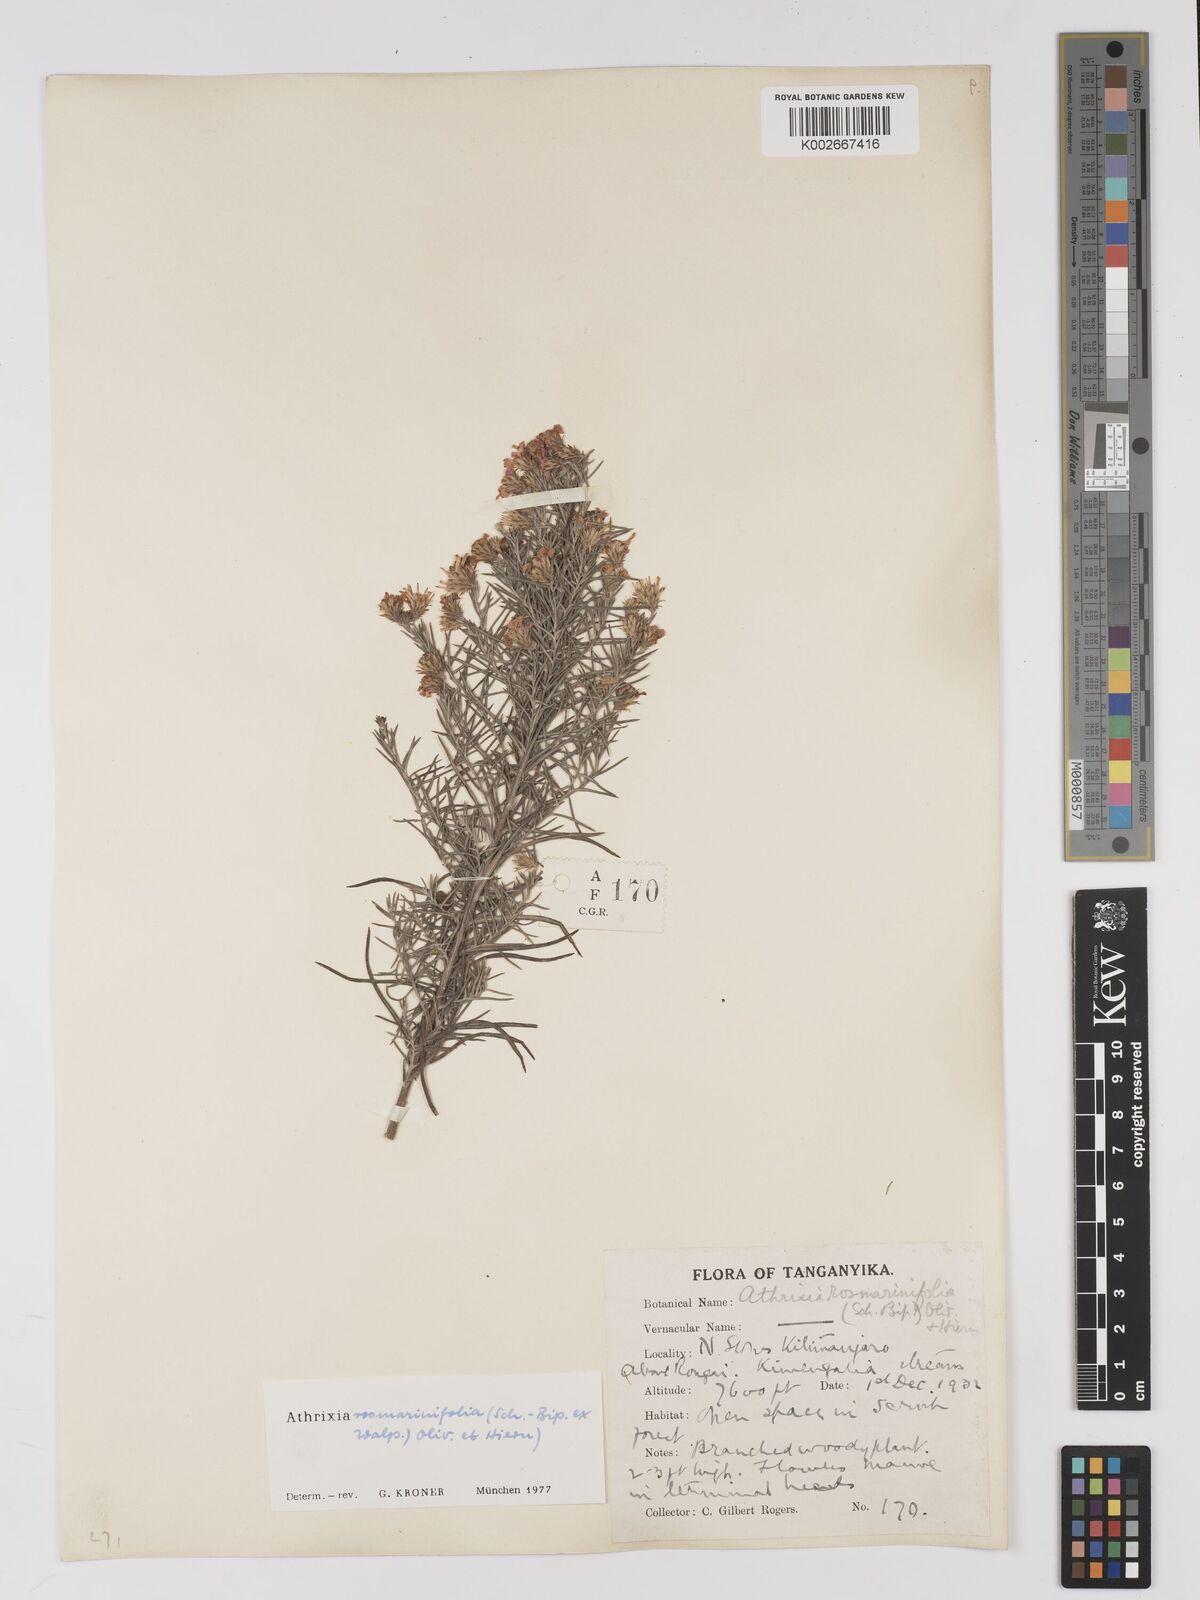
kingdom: Plantae
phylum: Tracheophyta
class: Magnoliopsida
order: Asterales
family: Asteraceae
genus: Athrixia
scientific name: Athrixia rosmarinifolia
